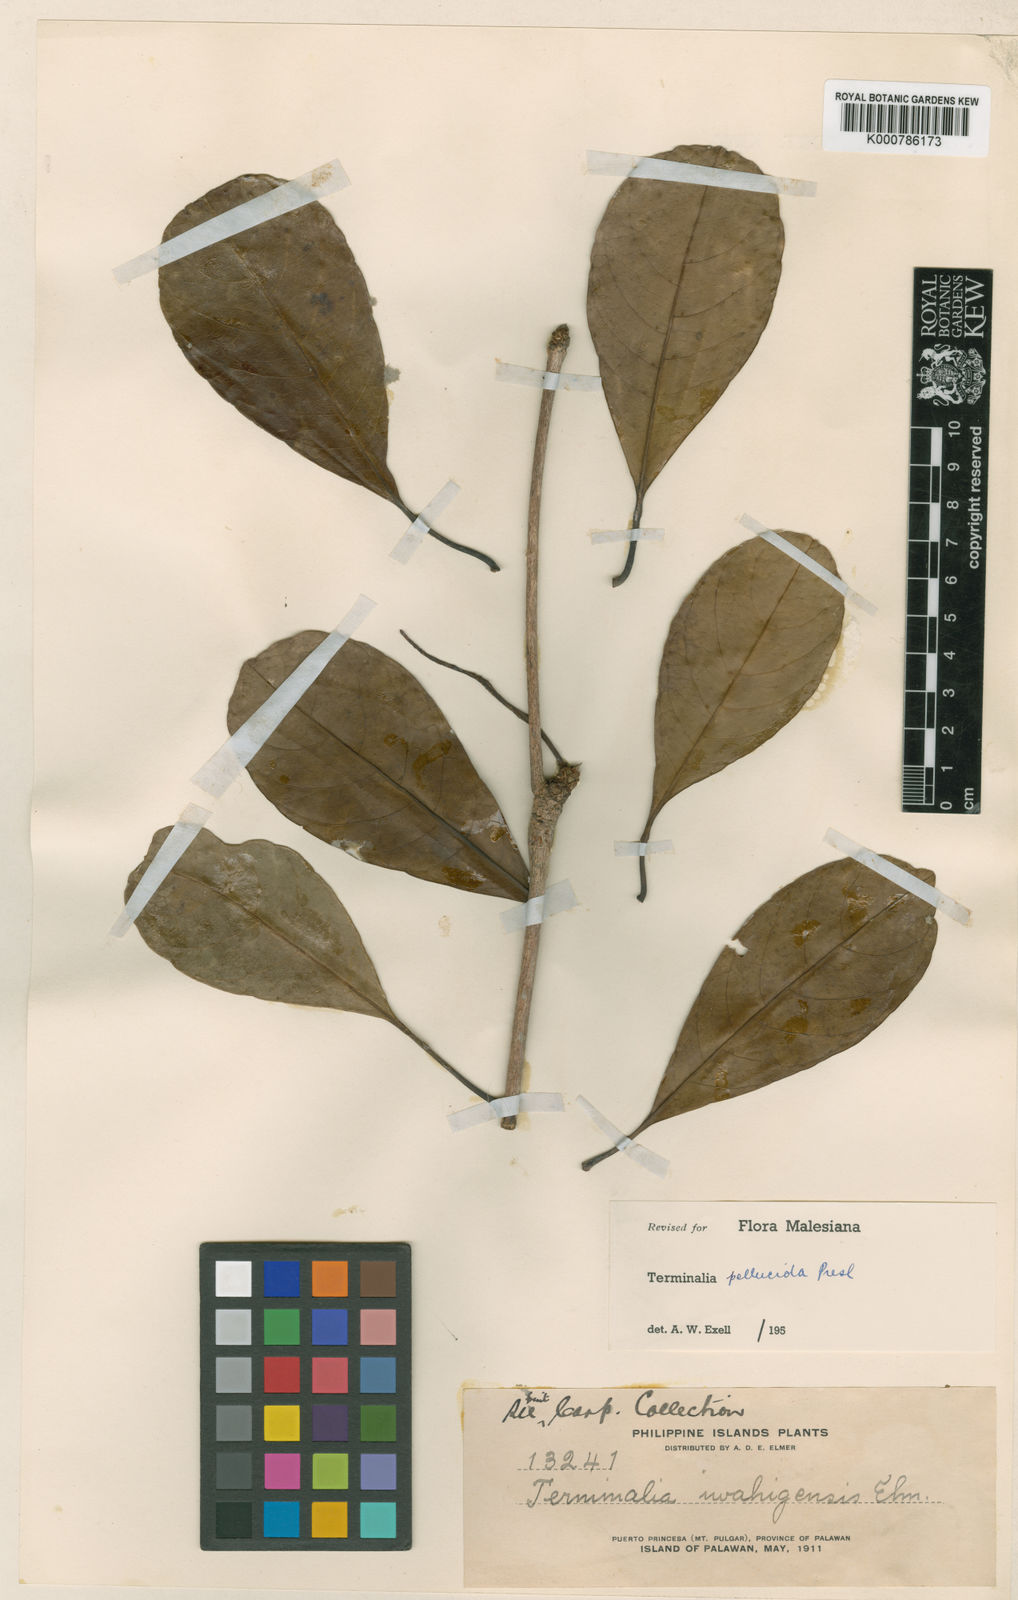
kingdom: Plantae
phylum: Tracheophyta
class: Magnoliopsida
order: Myrtales
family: Combretaceae
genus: Terminalia
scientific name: Terminalia pellucida
